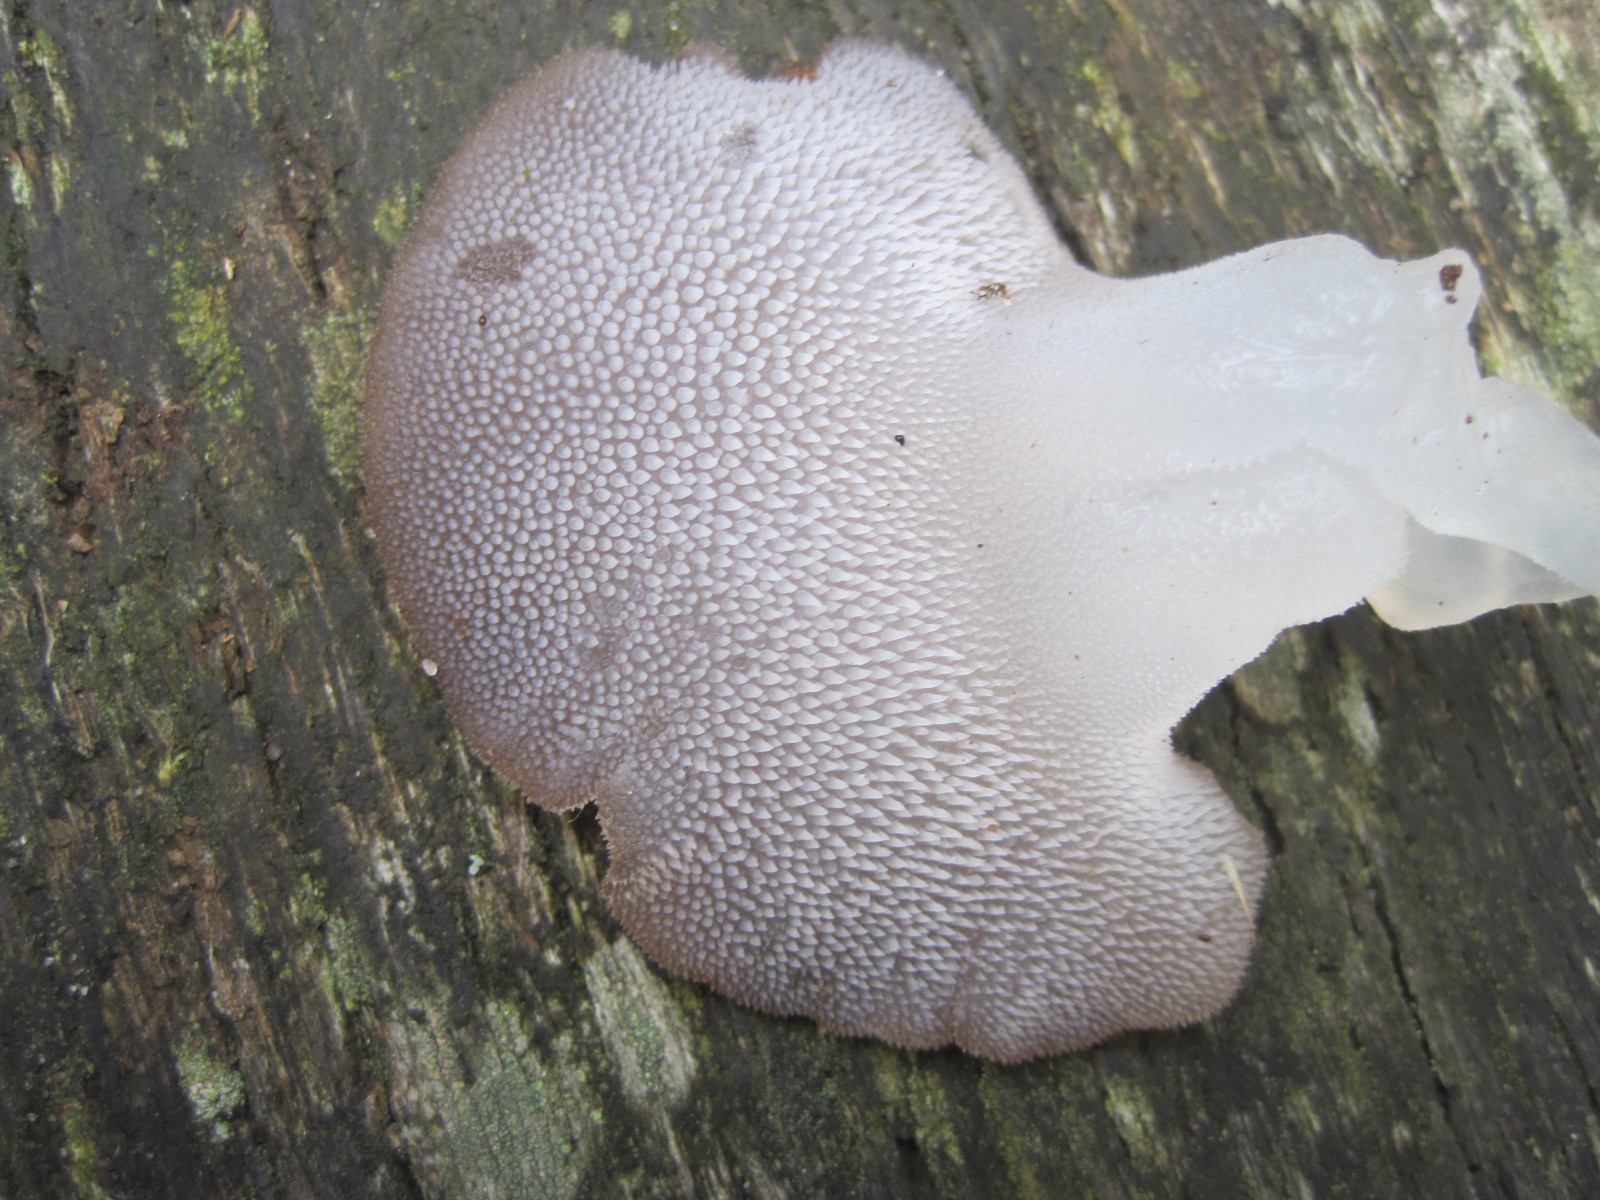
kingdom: Fungi
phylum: Basidiomycota
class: Agaricomycetes
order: Auriculariales
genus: Pseudohydnum
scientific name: Pseudohydnum gelatinosum
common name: bævretand
